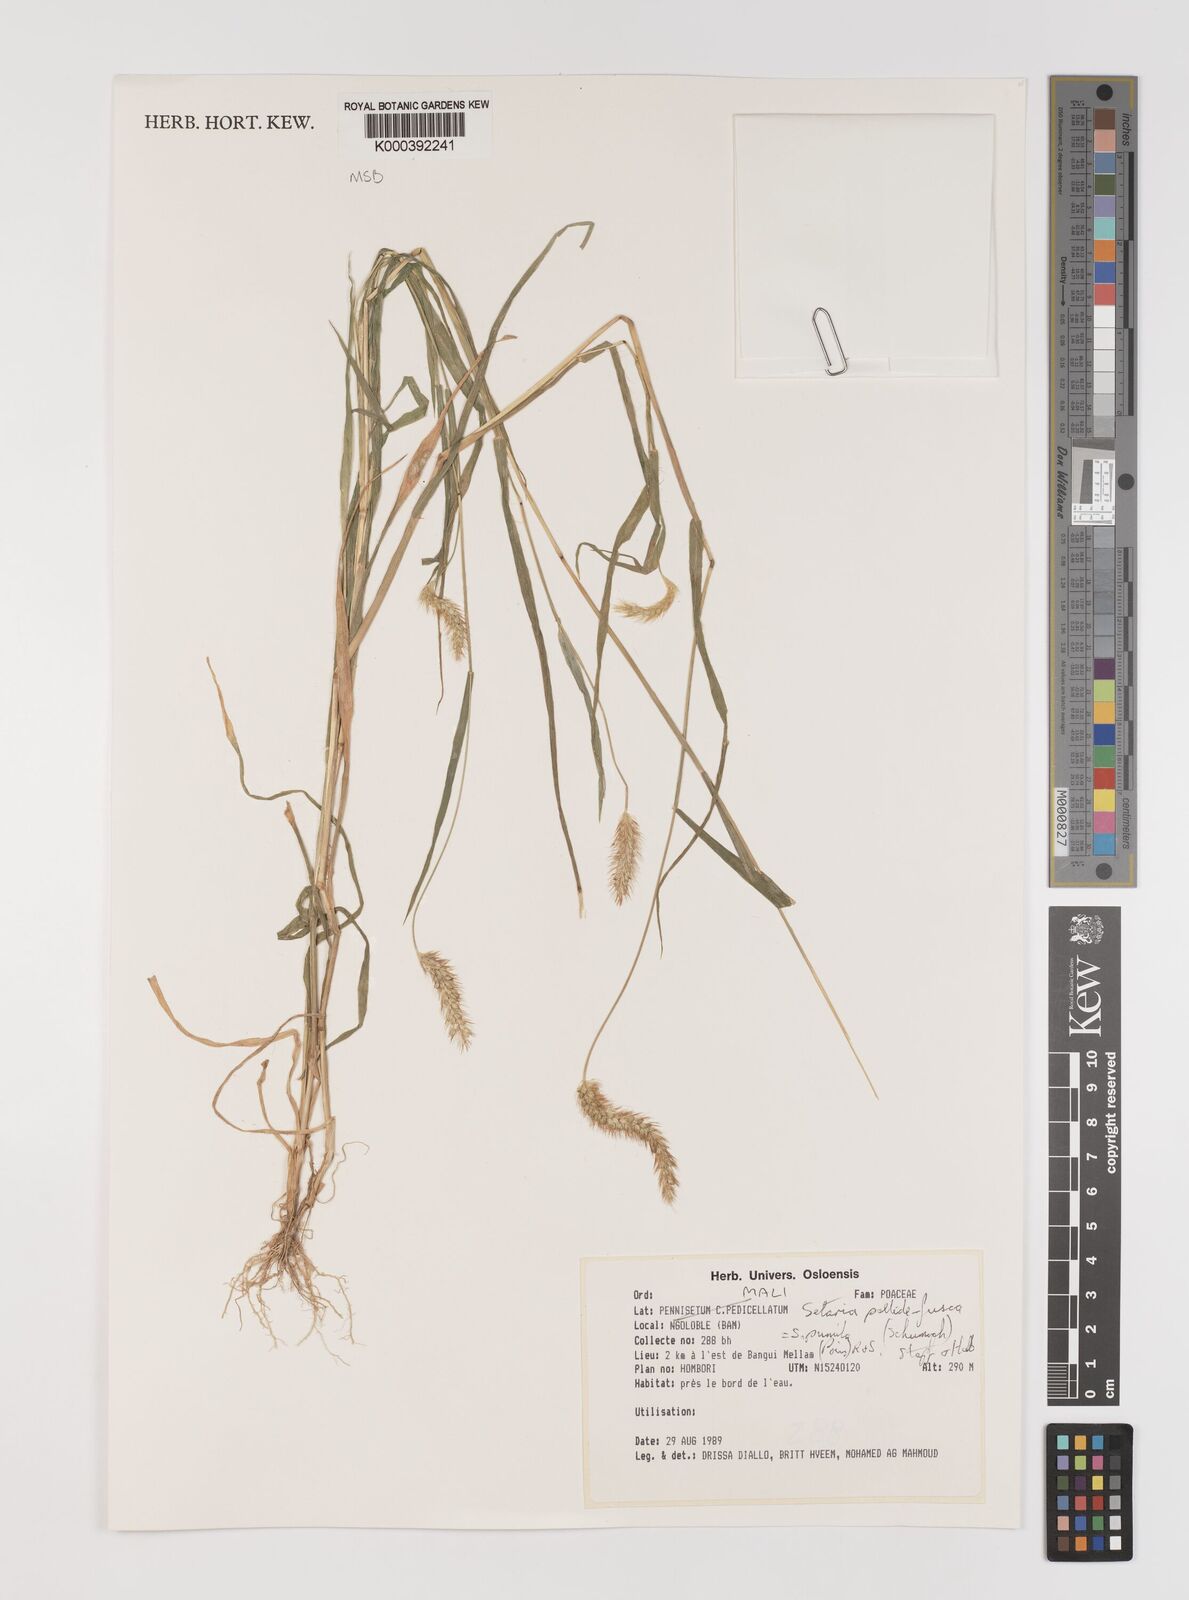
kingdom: Plantae
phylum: Tracheophyta
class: Liliopsida
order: Poales
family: Poaceae
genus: Setaria
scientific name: Setaria pumila
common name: Yellow bristle-grass
